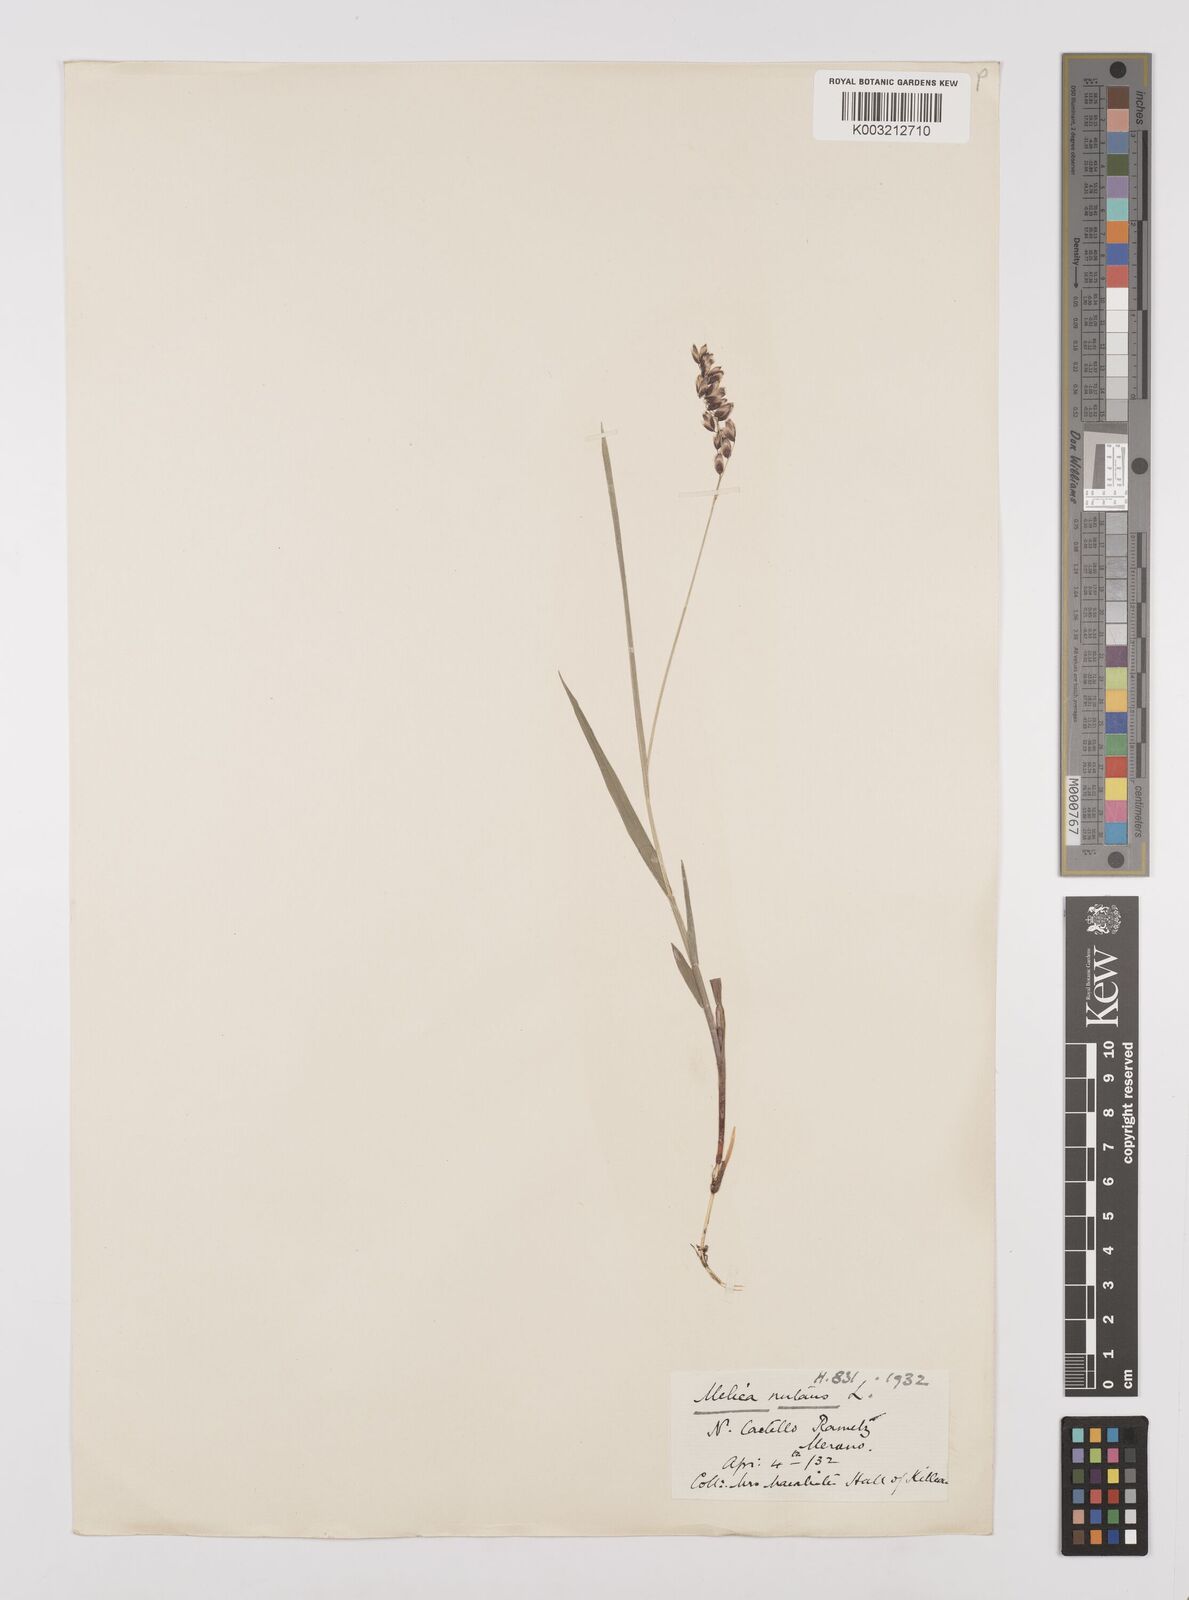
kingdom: Plantae
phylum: Tracheophyta
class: Liliopsida
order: Poales
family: Poaceae
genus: Melica
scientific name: Melica nutans
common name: Mountain melick
